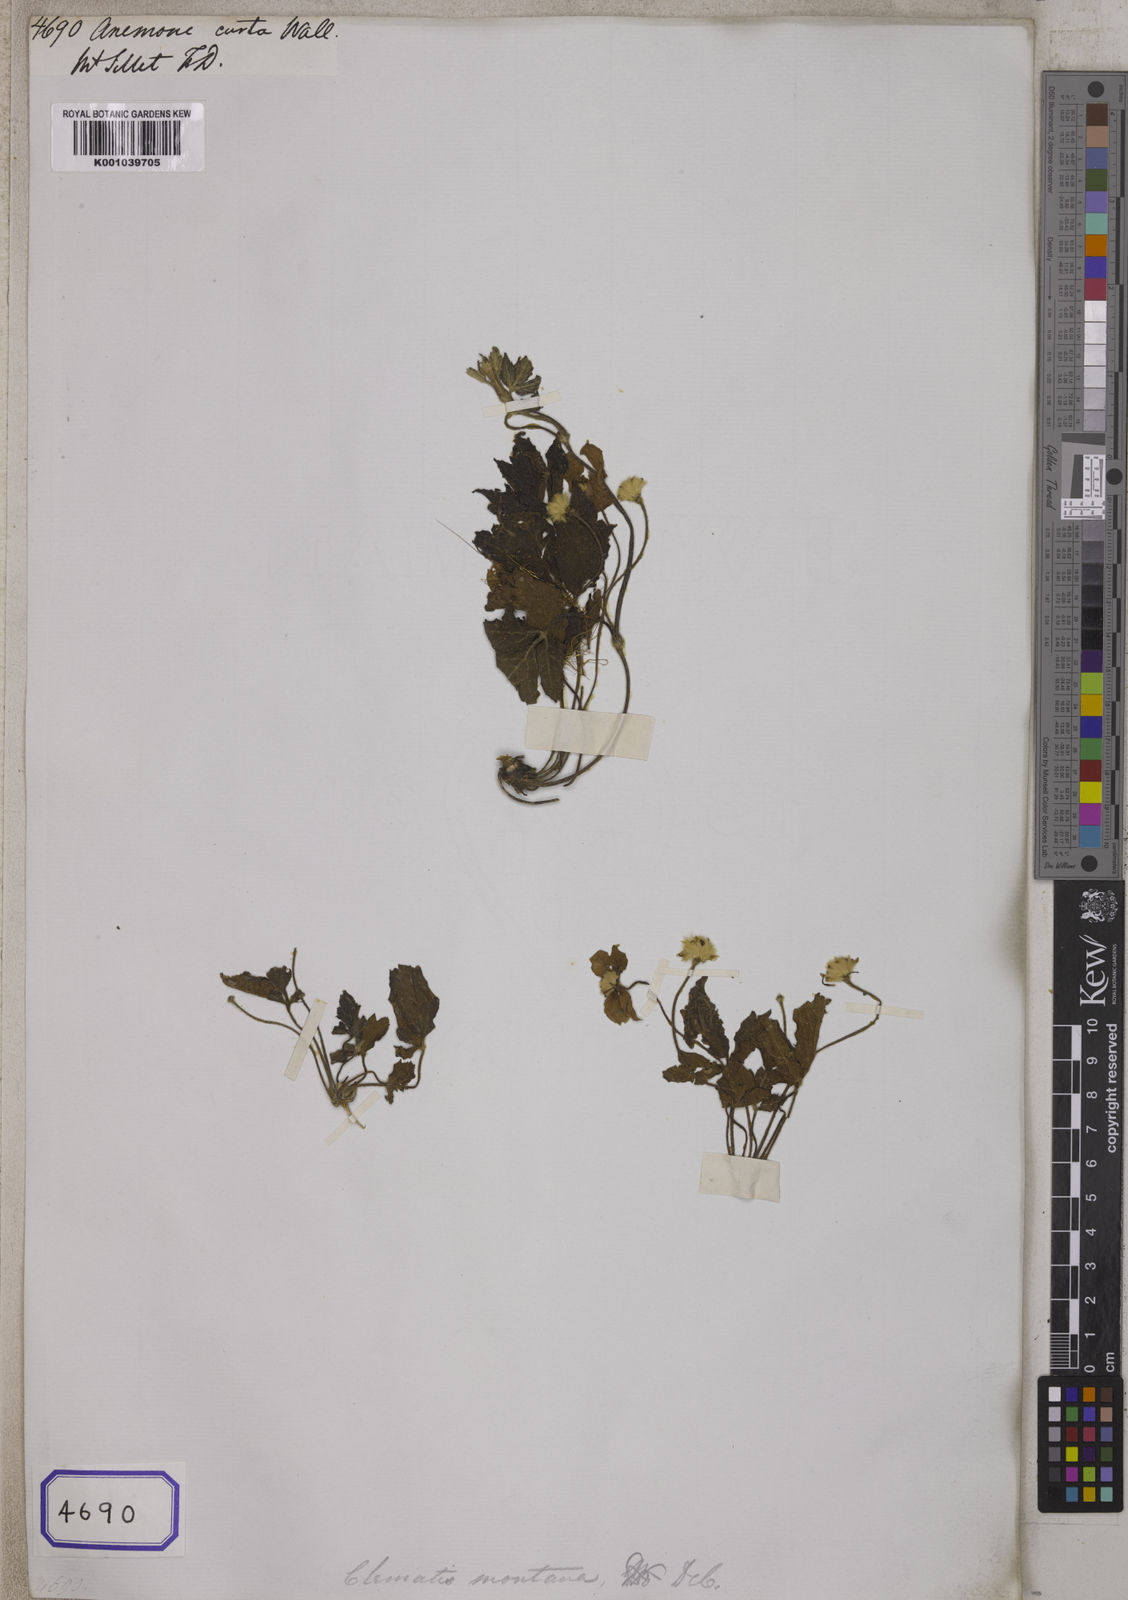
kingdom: Plantae
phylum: Tracheophyta
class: Magnoliopsida
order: Ranunculales
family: Ranunculaceae
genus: Clematis
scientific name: Clematis montana
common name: Himalayan clematis
